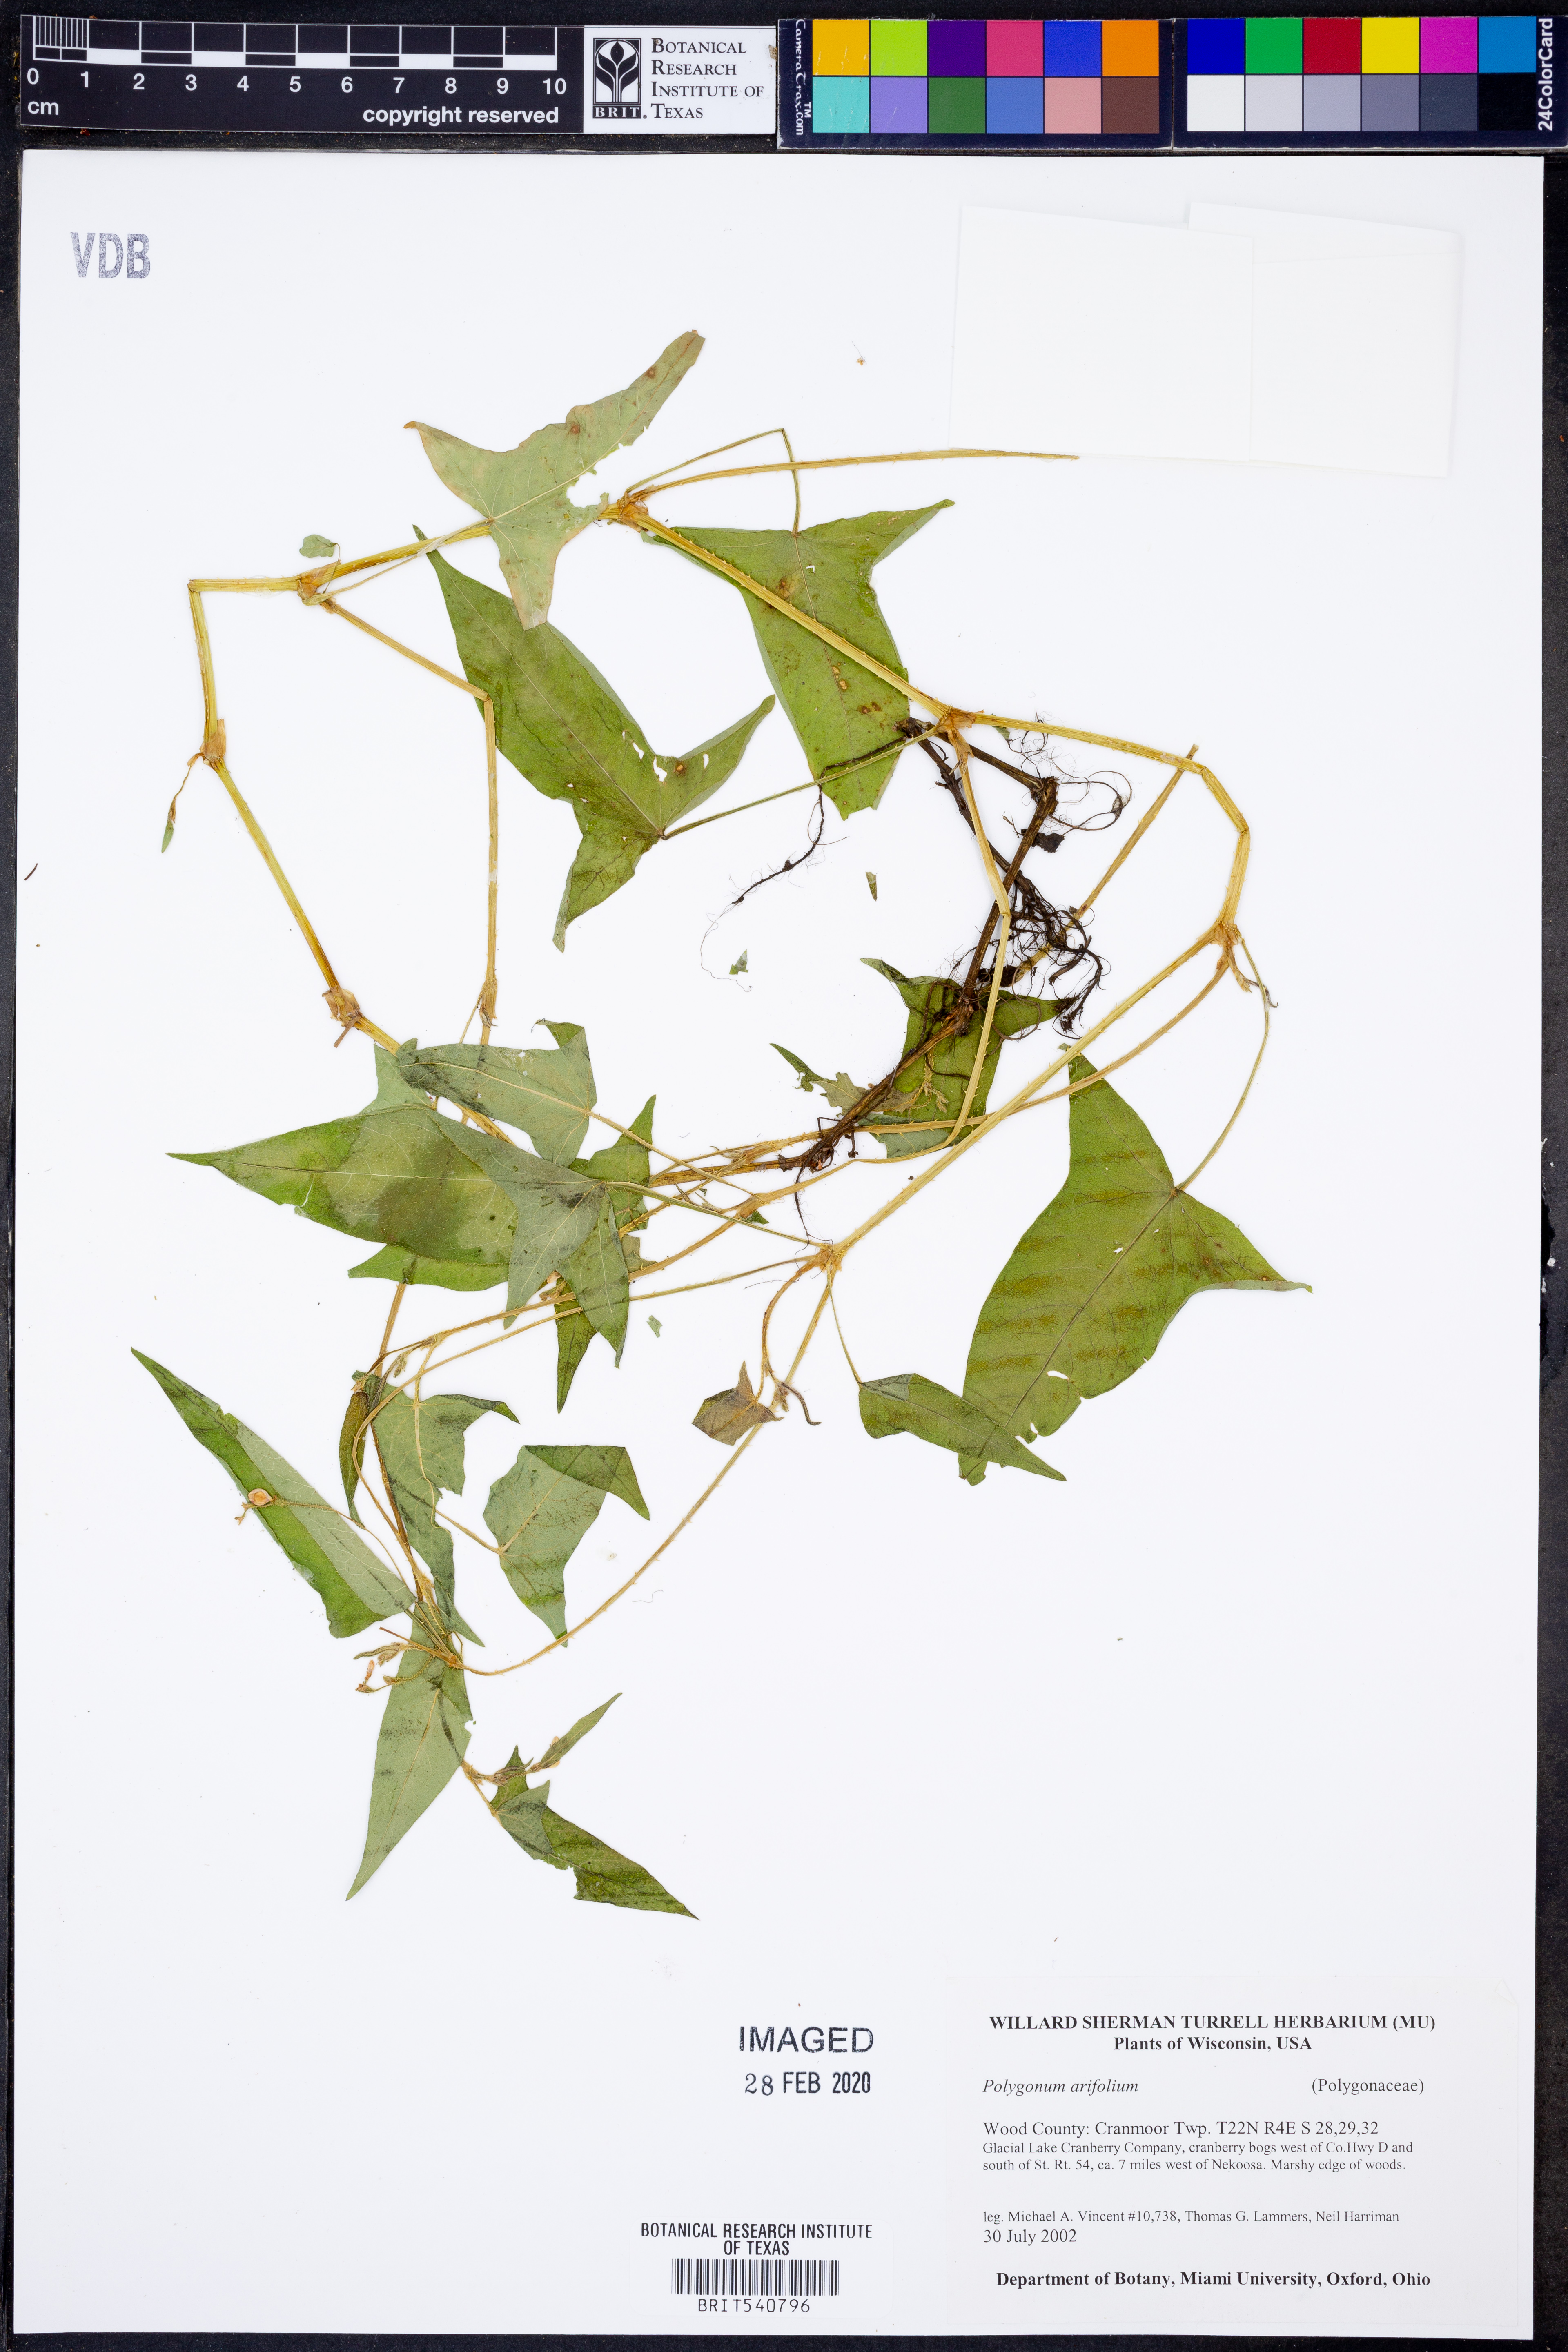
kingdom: Plantae
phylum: Tracheophyta
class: Magnoliopsida
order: Caryophyllales
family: Polygonaceae
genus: Persicaria
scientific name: Persicaria arifolia
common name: Halberd-leaved tear-thumb
